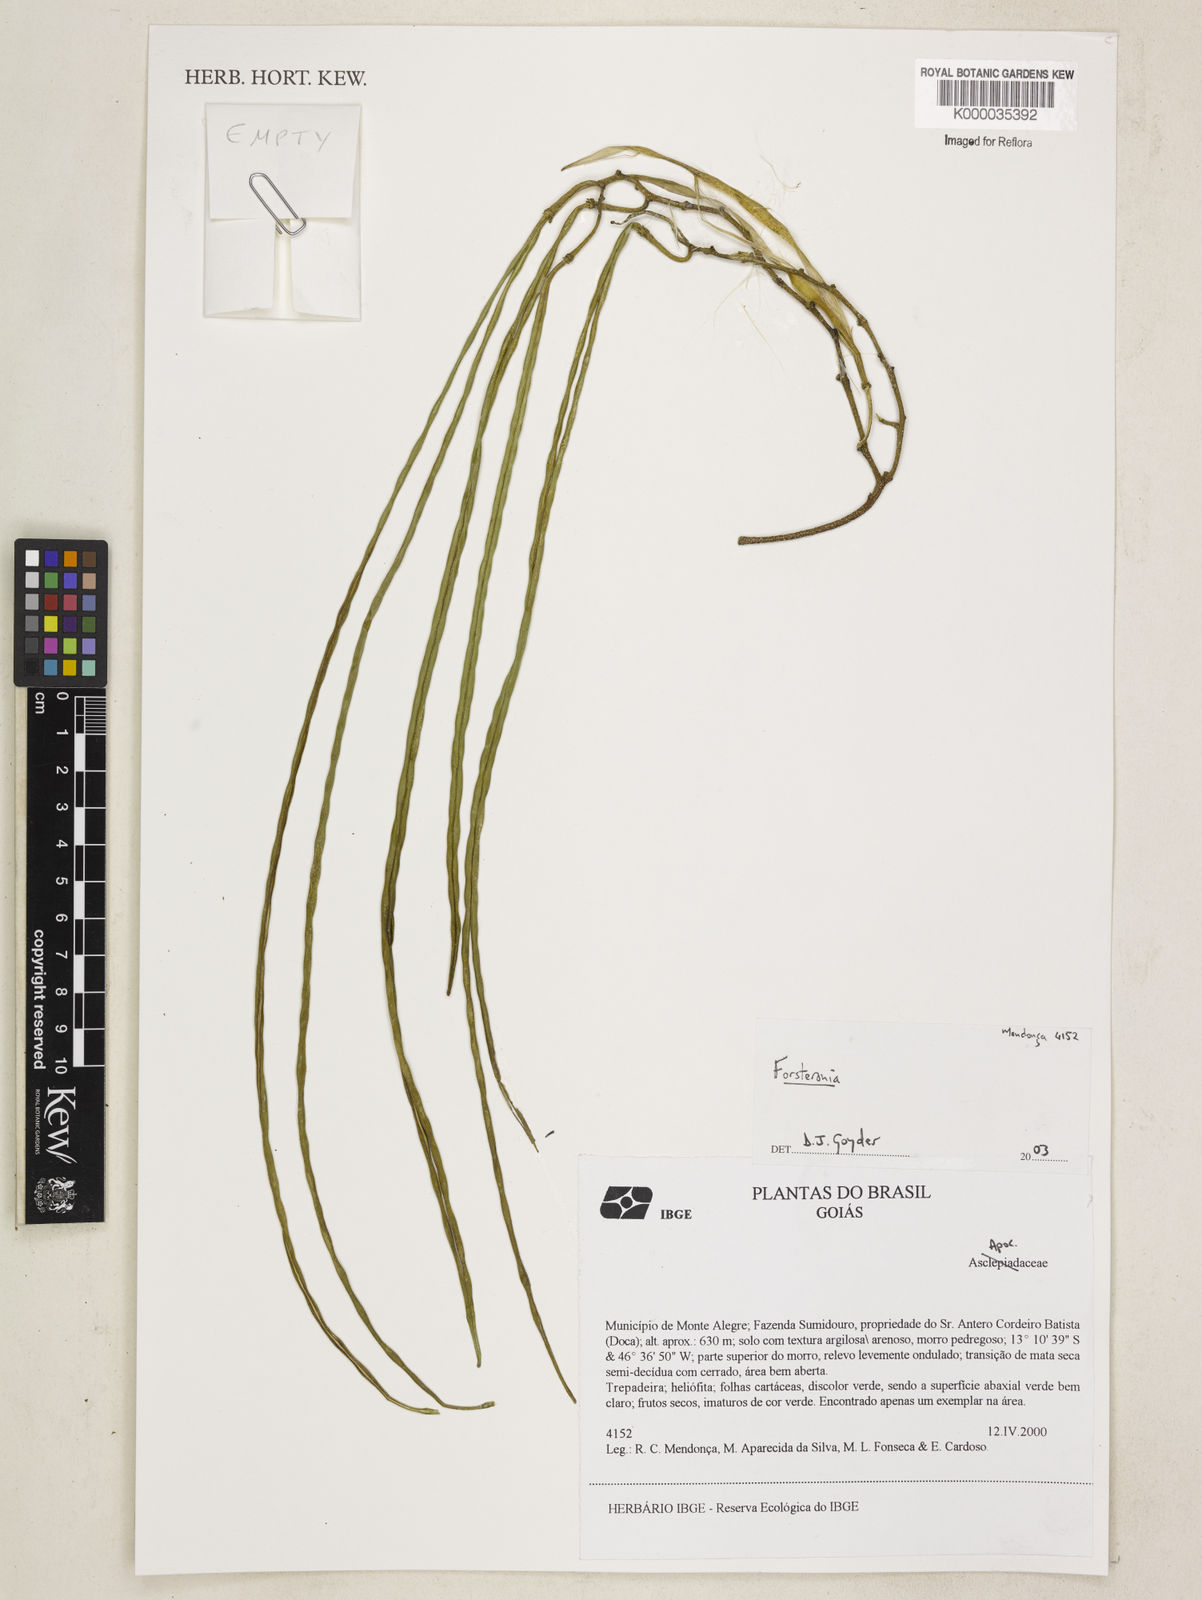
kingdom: Plantae
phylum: Tracheophyta
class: Magnoliopsida
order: Gentianales
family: Apocynaceae
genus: Forsteronia
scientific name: Forsteronia
